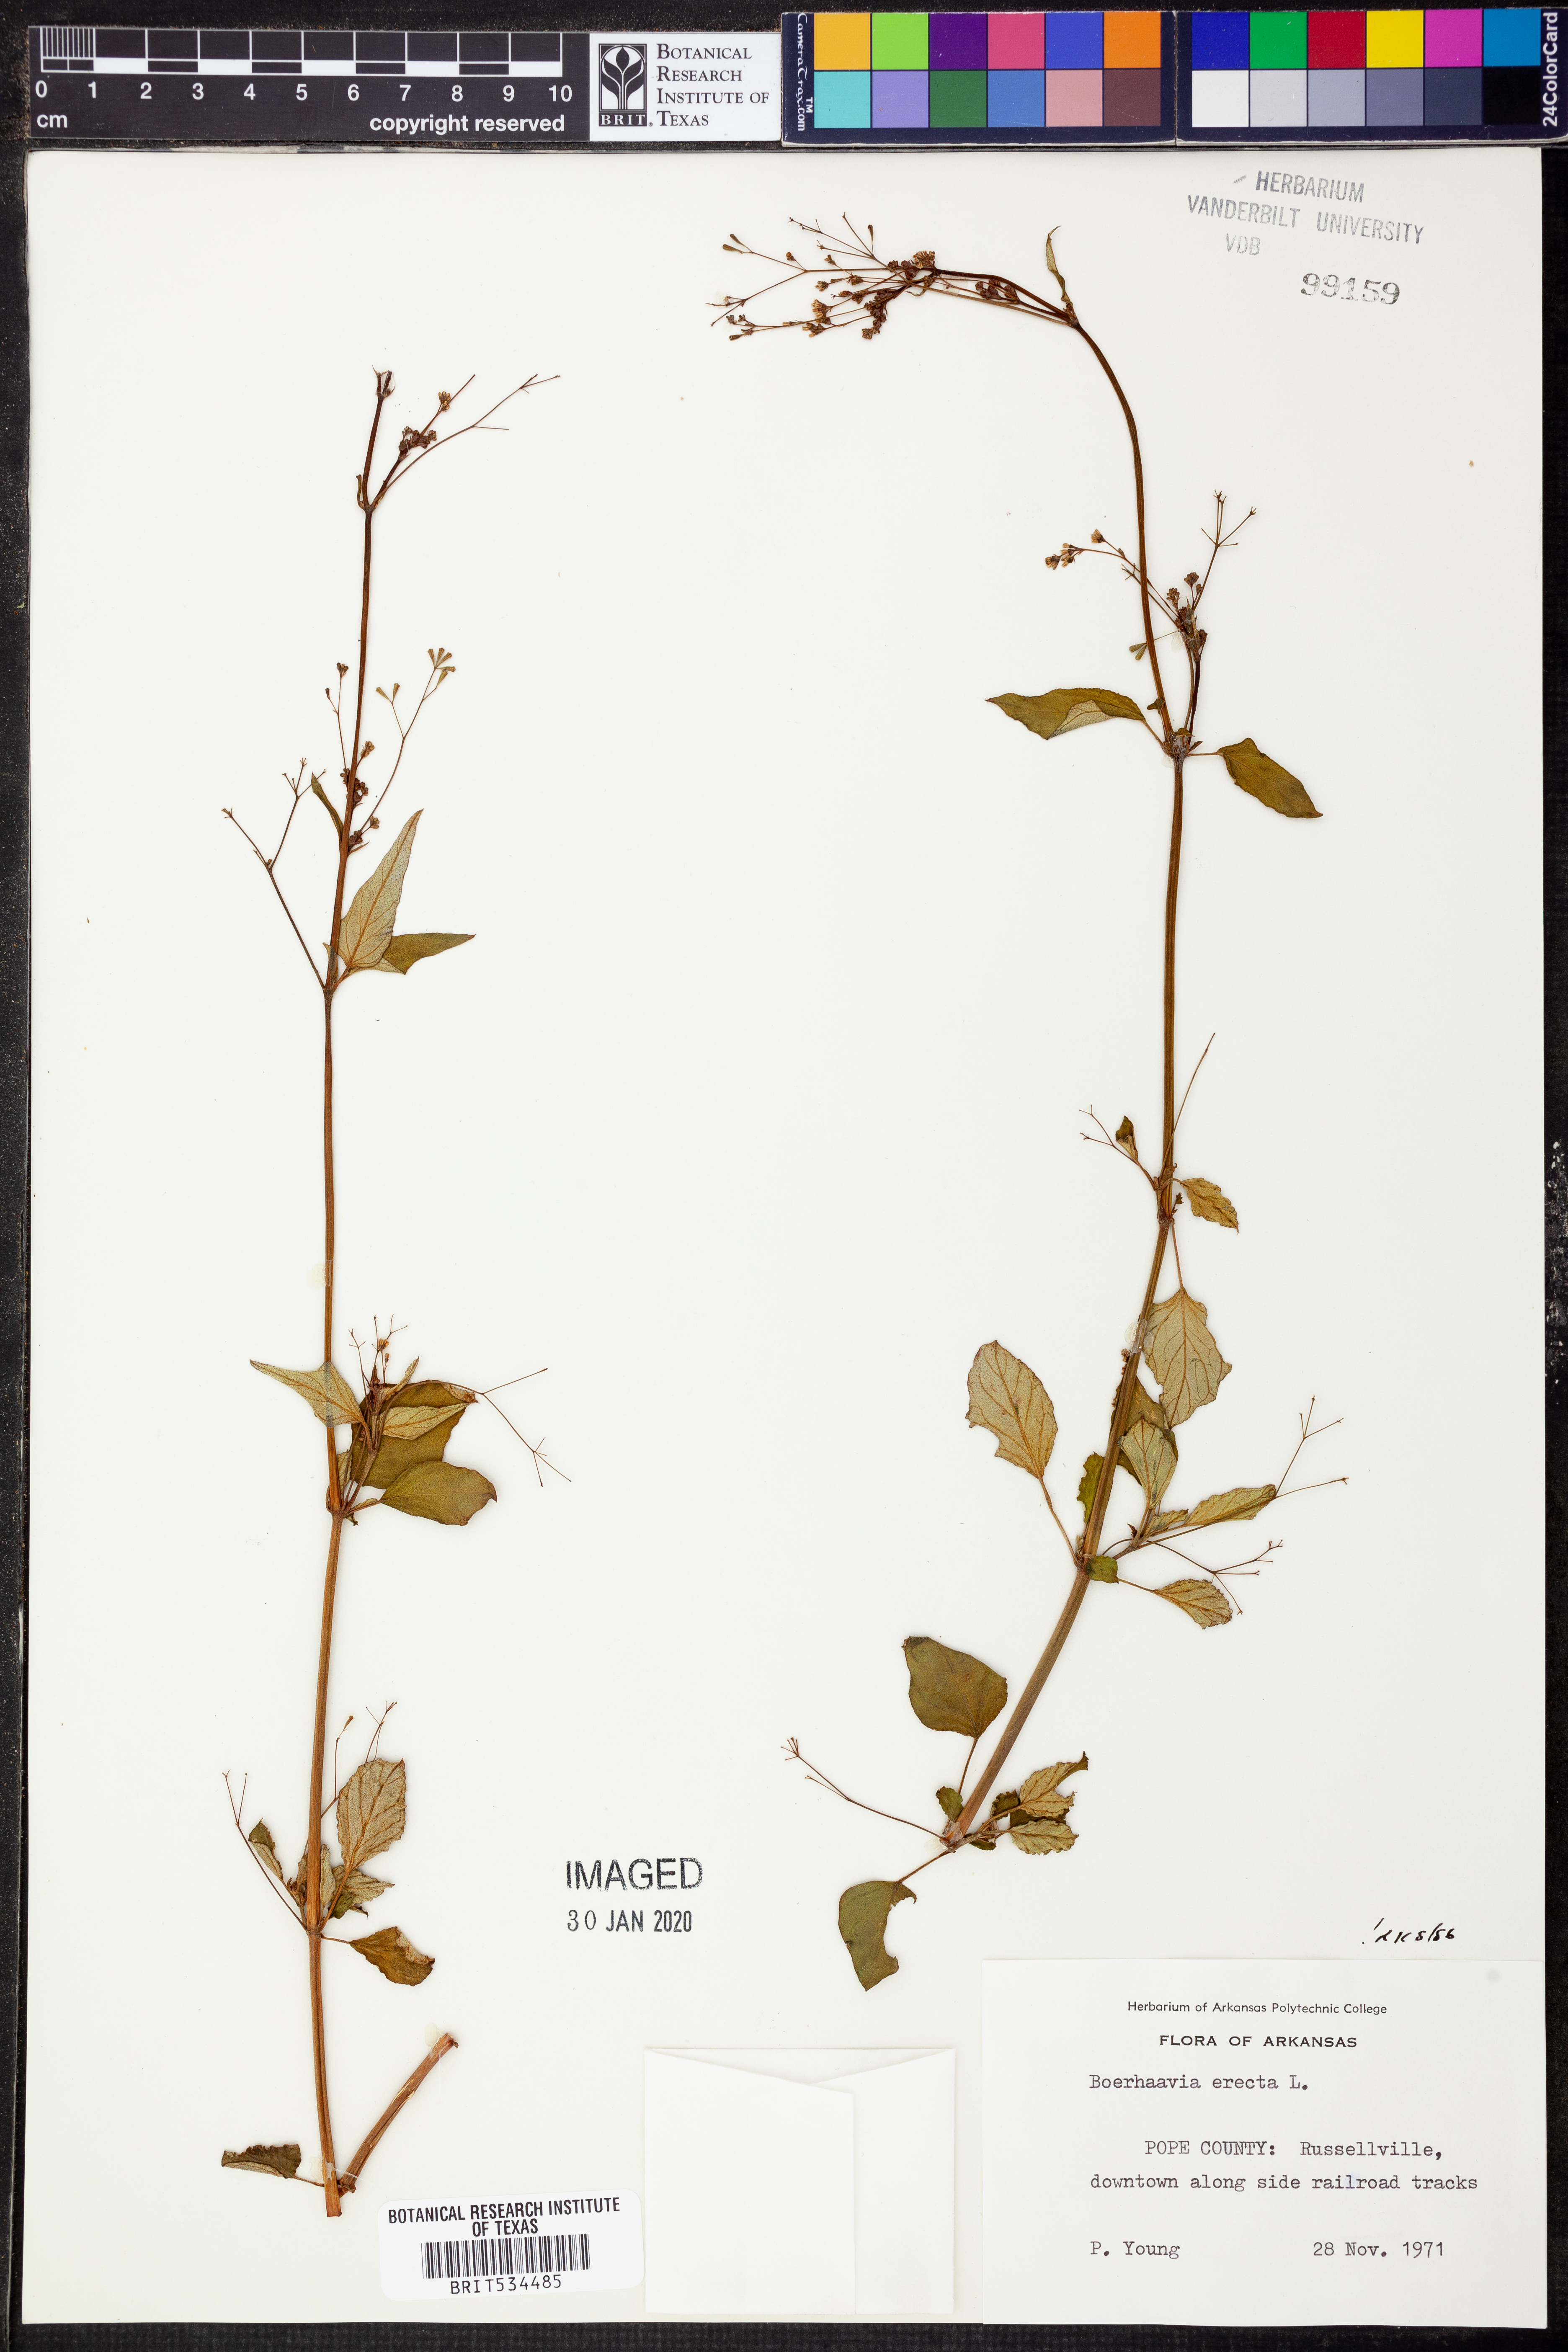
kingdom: Plantae
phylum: Tracheophyta
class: Magnoliopsida
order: Caryophyllales
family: Nyctaginaceae
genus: Boerhavia
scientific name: Boerhavia erecta
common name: Erect spiderling
